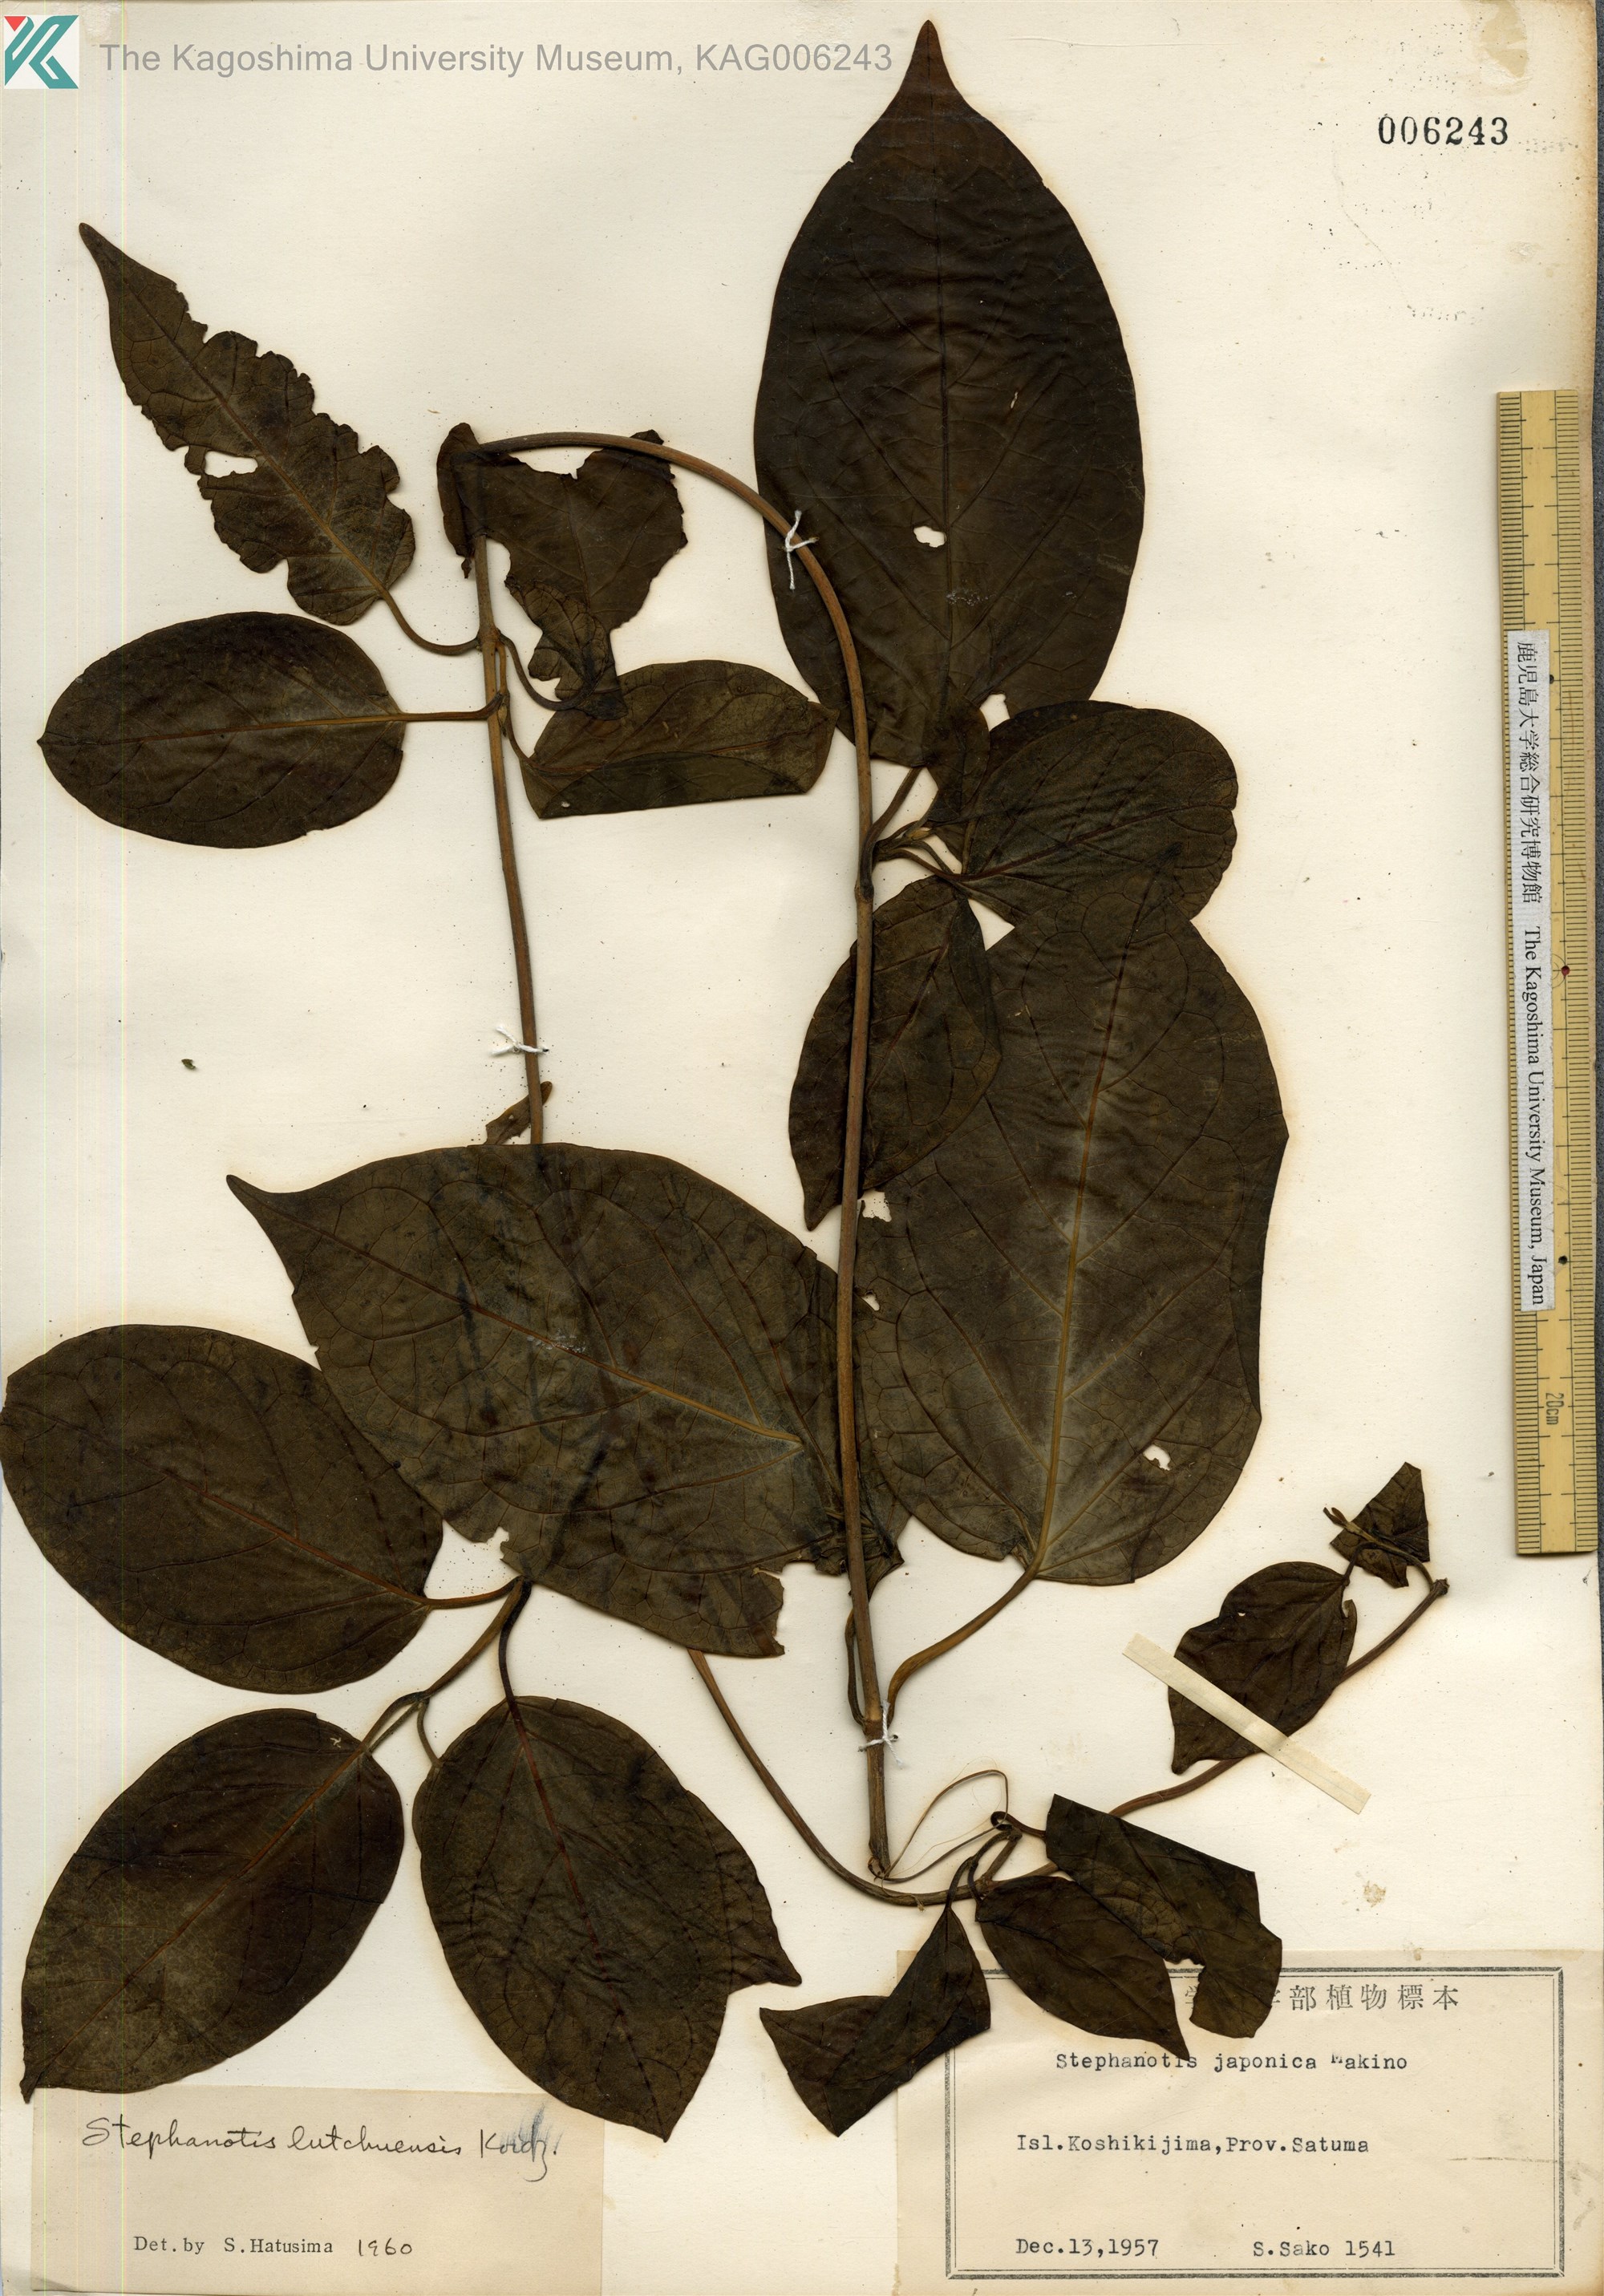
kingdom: Plantae
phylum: Tracheophyta
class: Magnoliopsida
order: Gentianales
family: Apocynaceae
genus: Jasminanthes
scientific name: Jasminanthes mucronata
